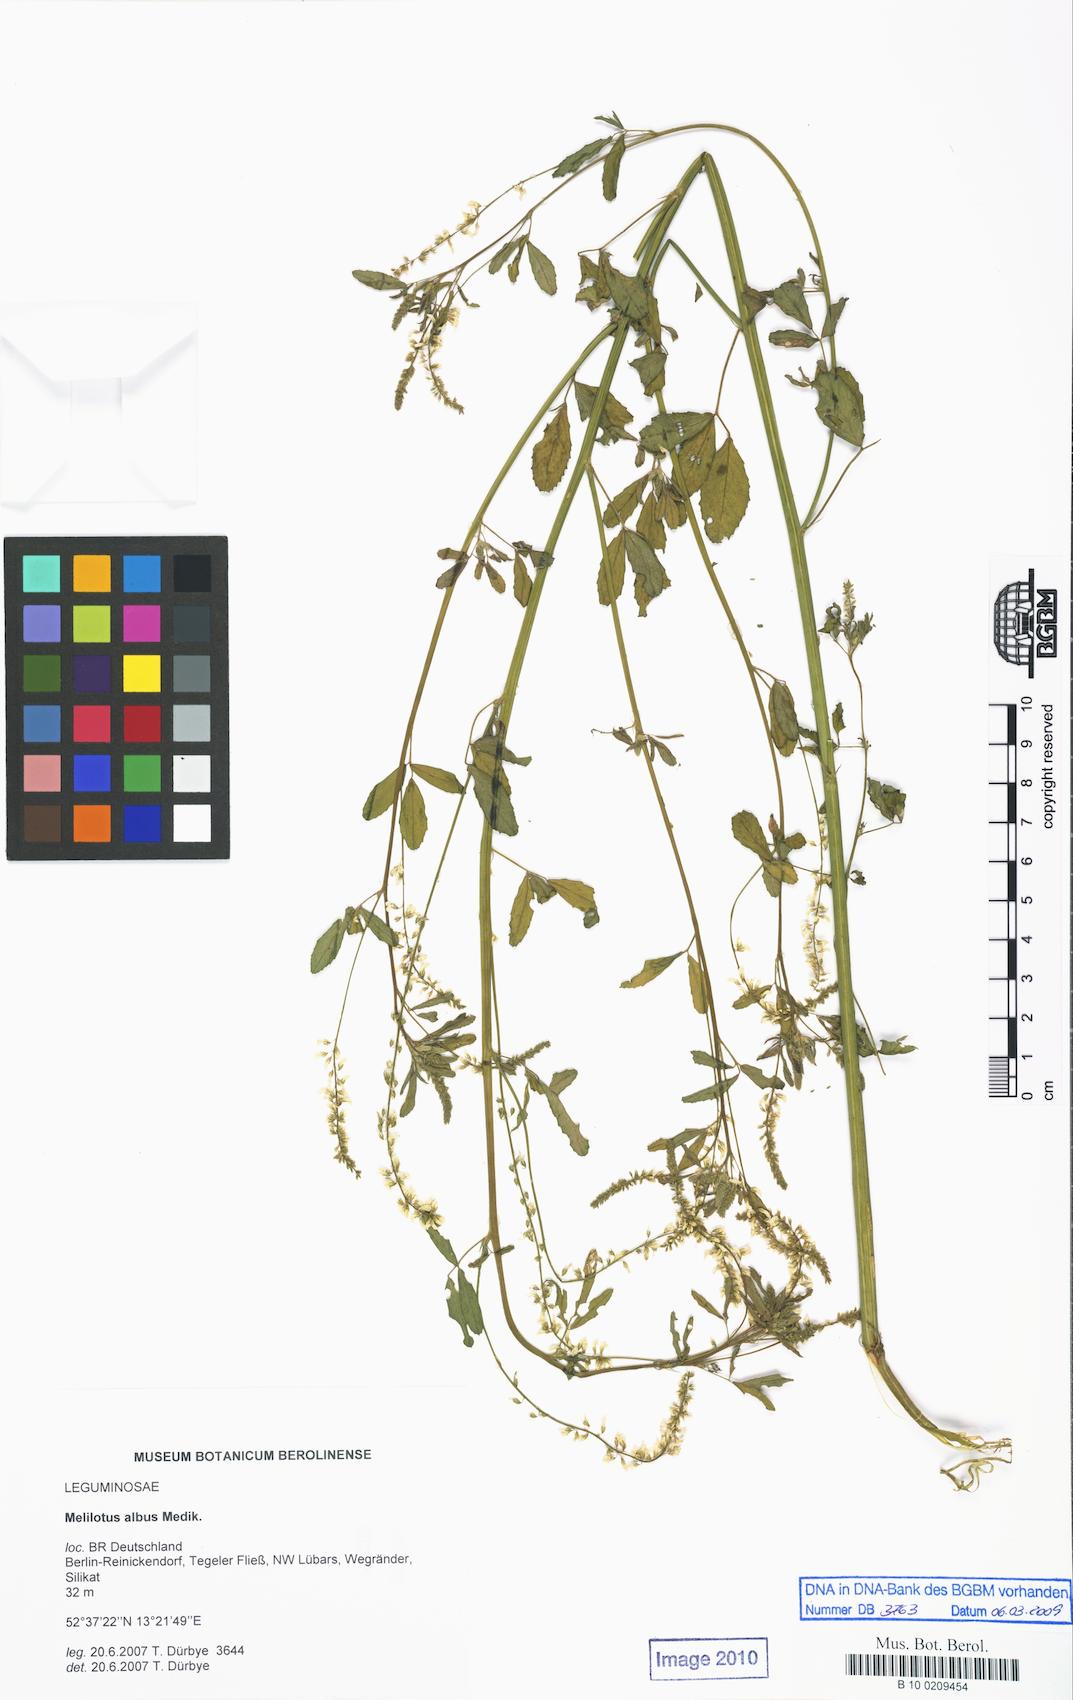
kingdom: Plantae
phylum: Tracheophyta
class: Magnoliopsida
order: Fabales
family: Fabaceae
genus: Melilotus
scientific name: Melilotus albus
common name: White melilot
